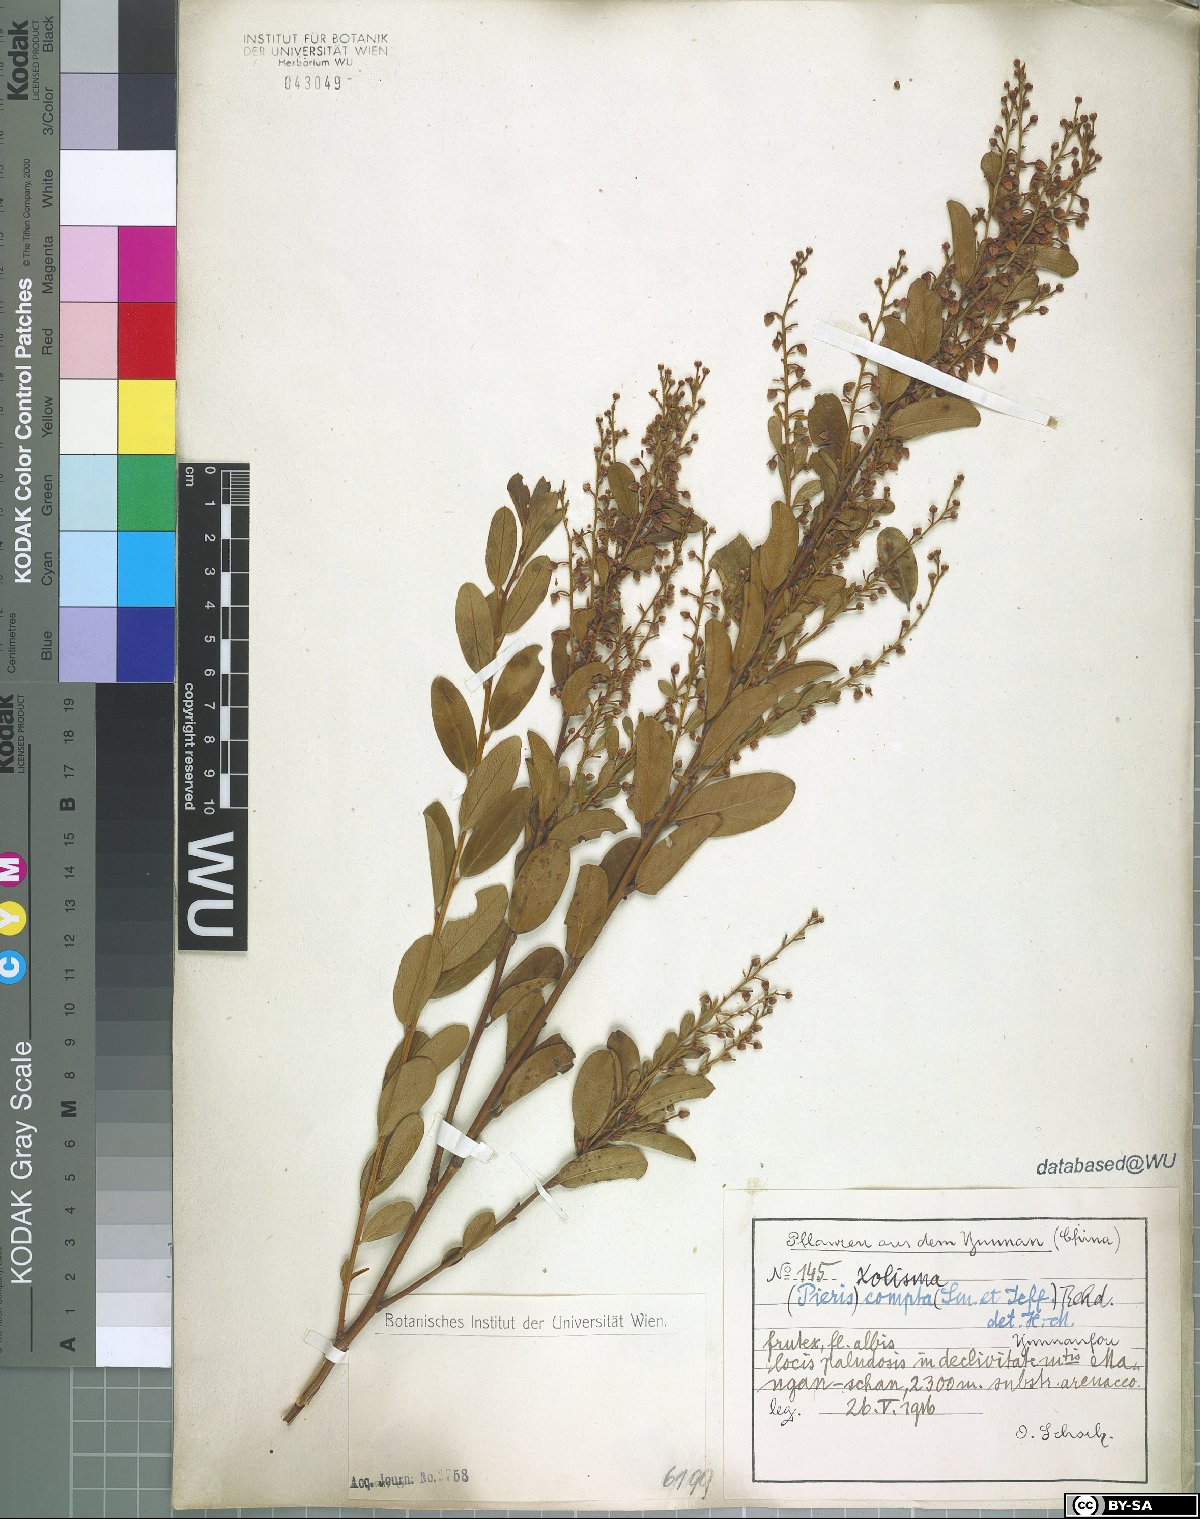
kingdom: Plantae
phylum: Tracheophyta
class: Magnoliopsida
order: Ericales
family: Ericaceae
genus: Lyonia
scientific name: Lyonia compta
